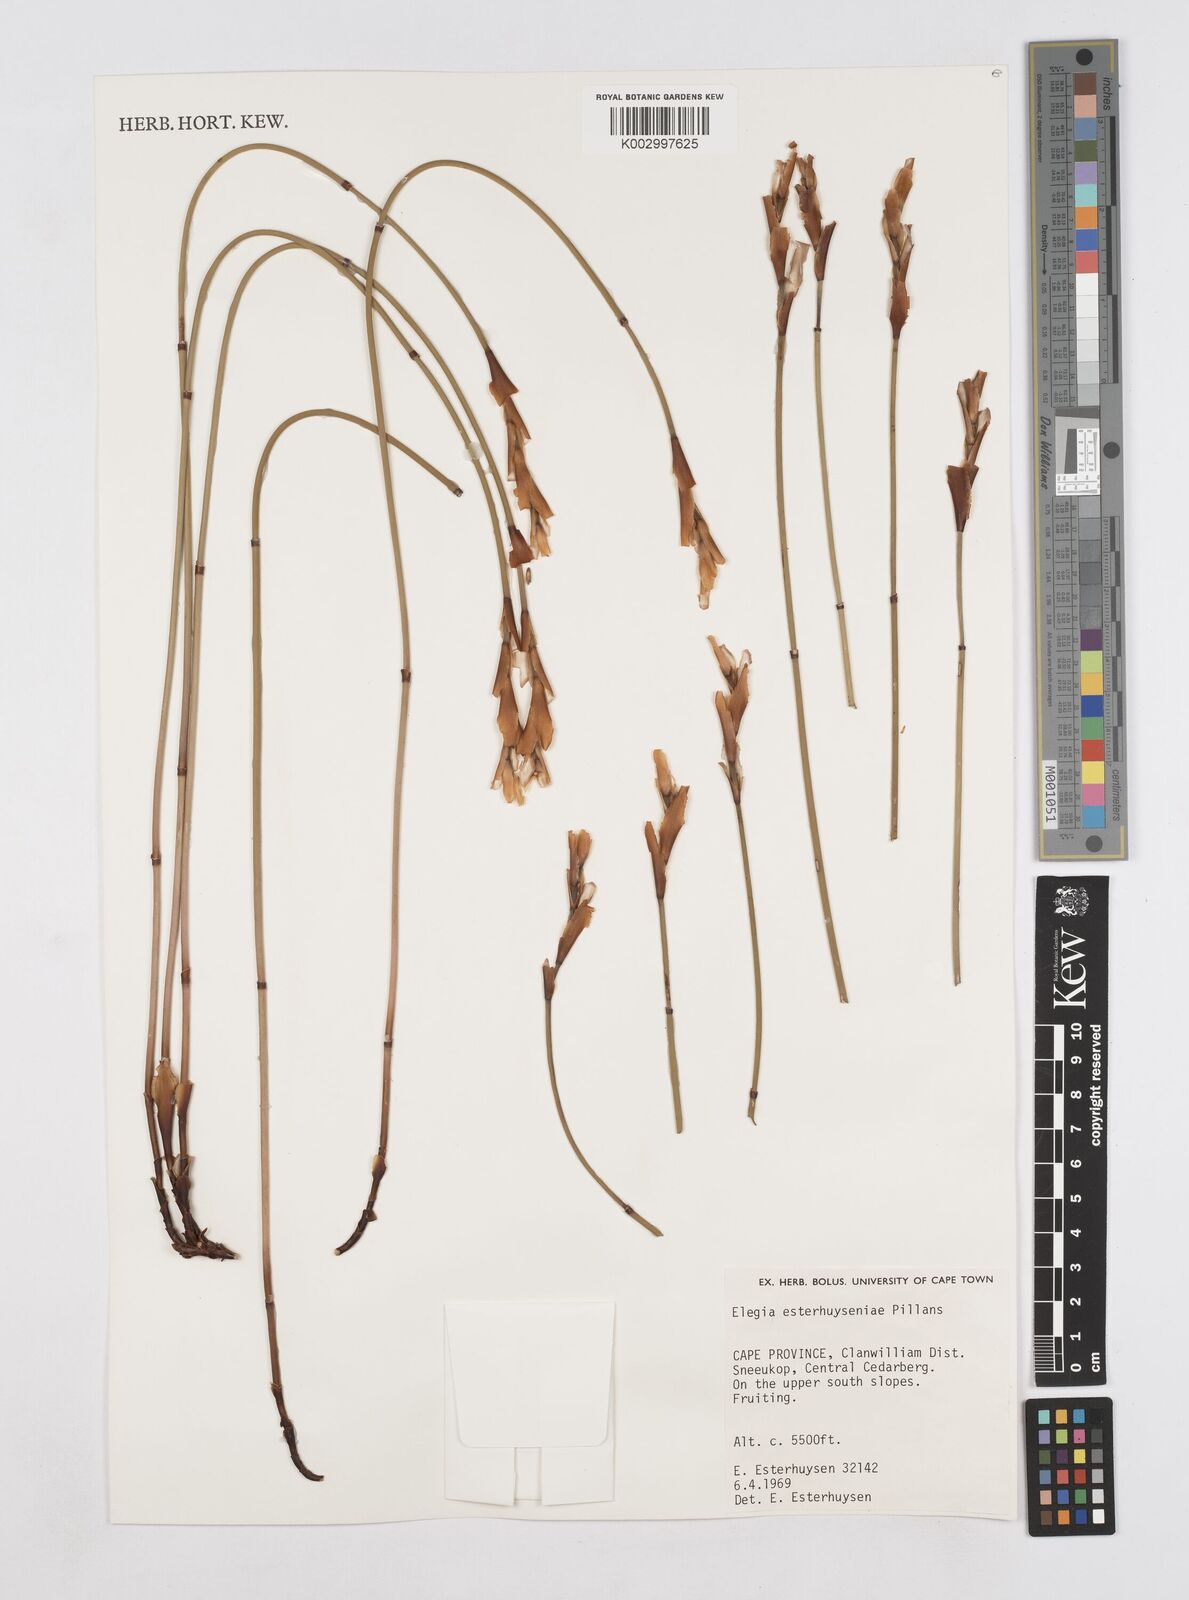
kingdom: Plantae
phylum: Tracheophyta
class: Liliopsida
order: Poales
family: Restionaceae
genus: Elegia
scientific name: Elegia esterhuyseniae
